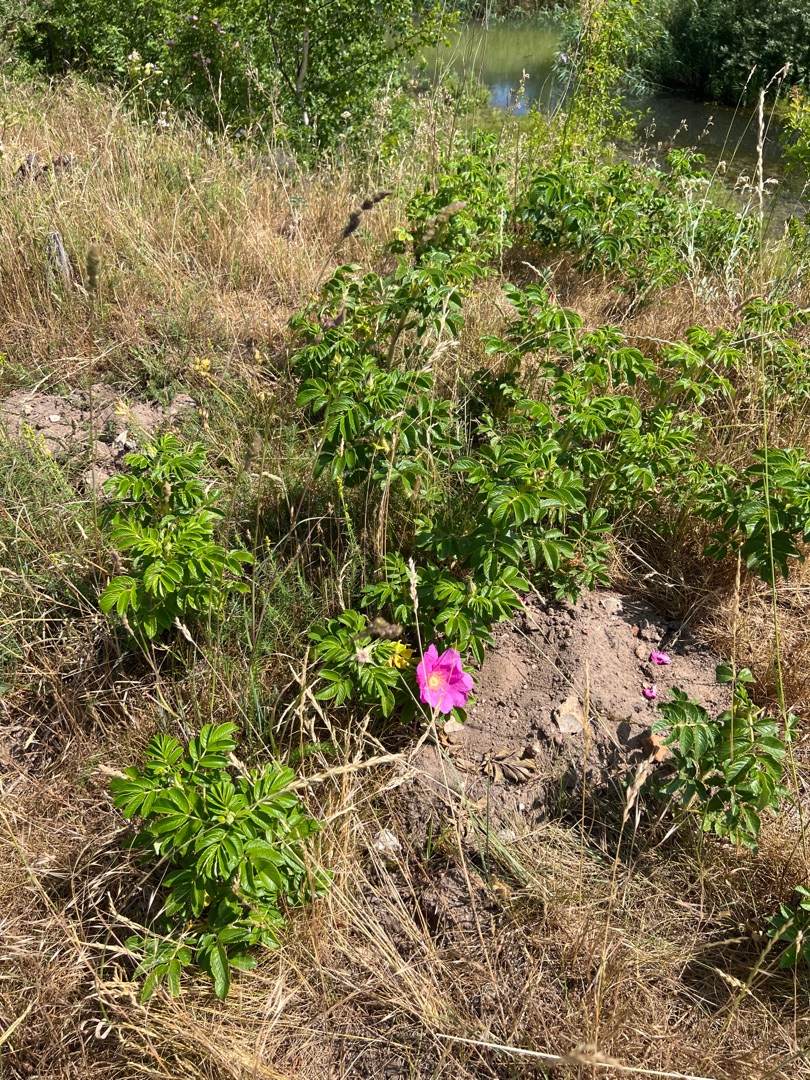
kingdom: Plantae
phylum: Tracheophyta
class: Magnoliopsida
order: Rosales
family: Rosaceae
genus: Rosa
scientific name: Rosa rugosa
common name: Rynket rose
